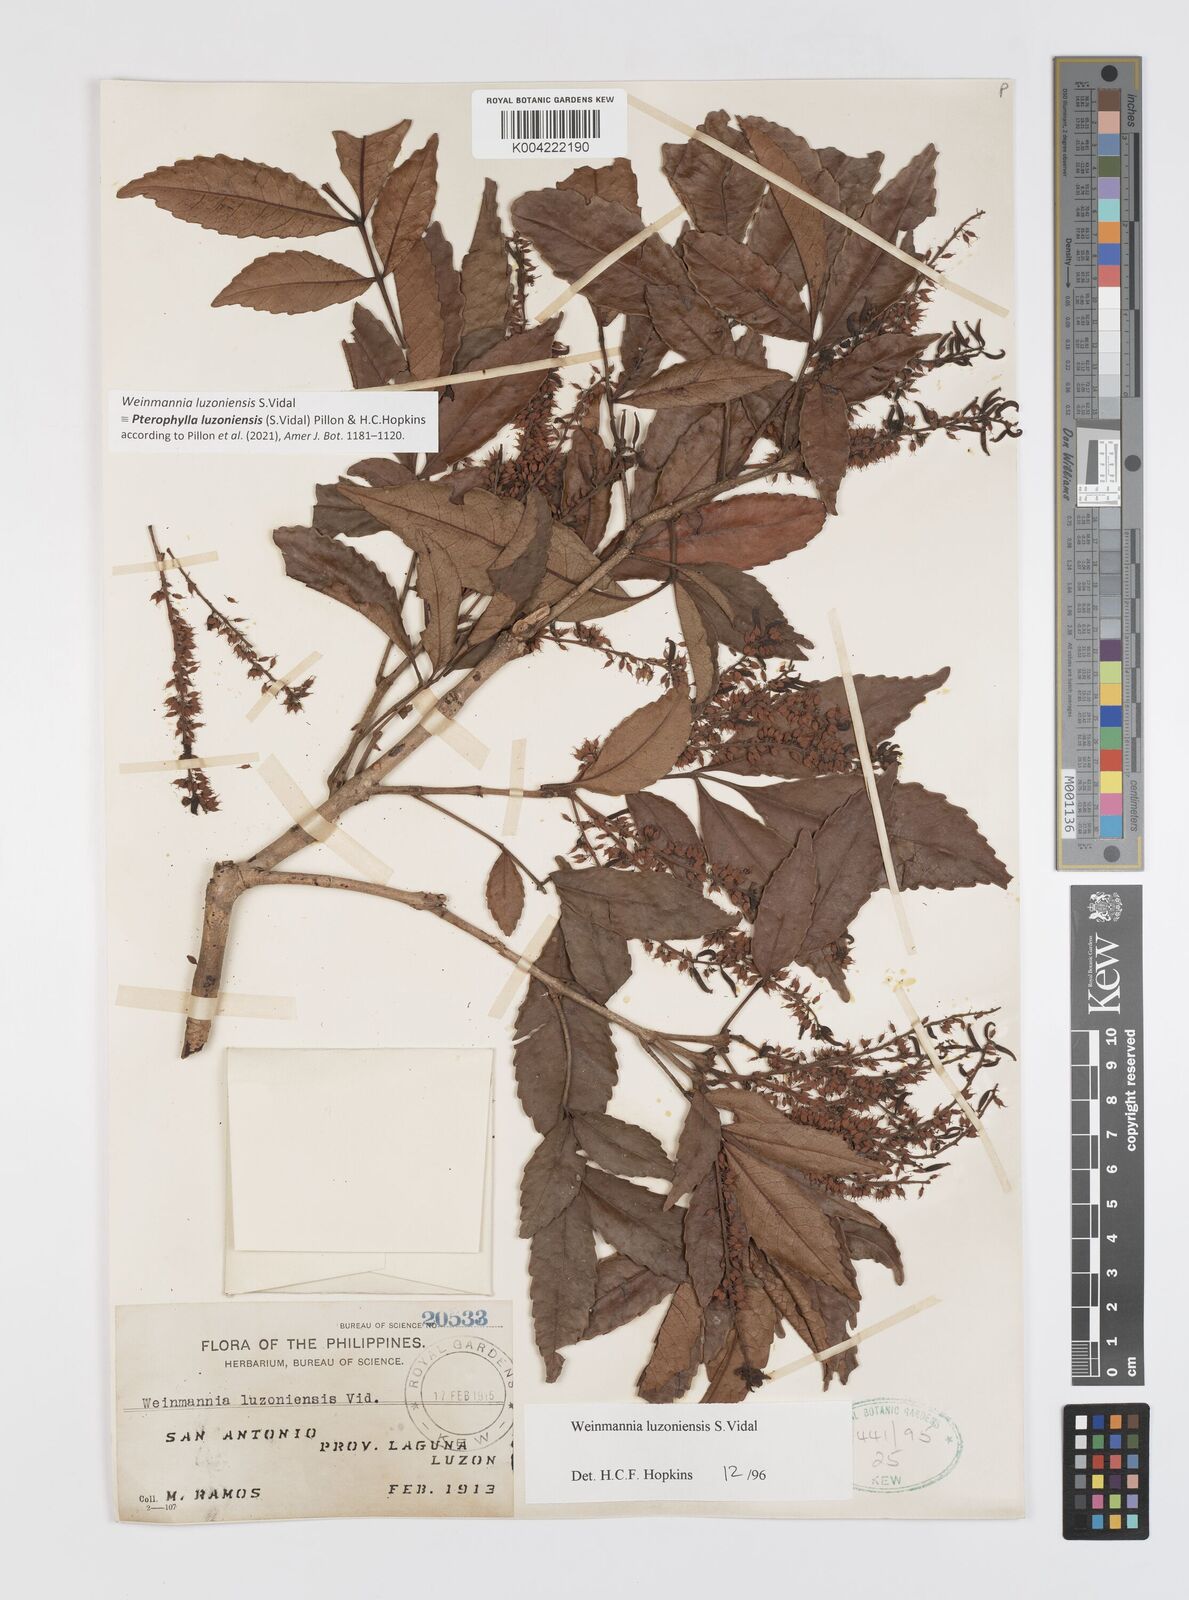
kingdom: Plantae
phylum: Tracheophyta
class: Magnoliopsida
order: Oxalidales
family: Cunoniaceae
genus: Pterophylla
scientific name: Pterophylla luzoniensis
